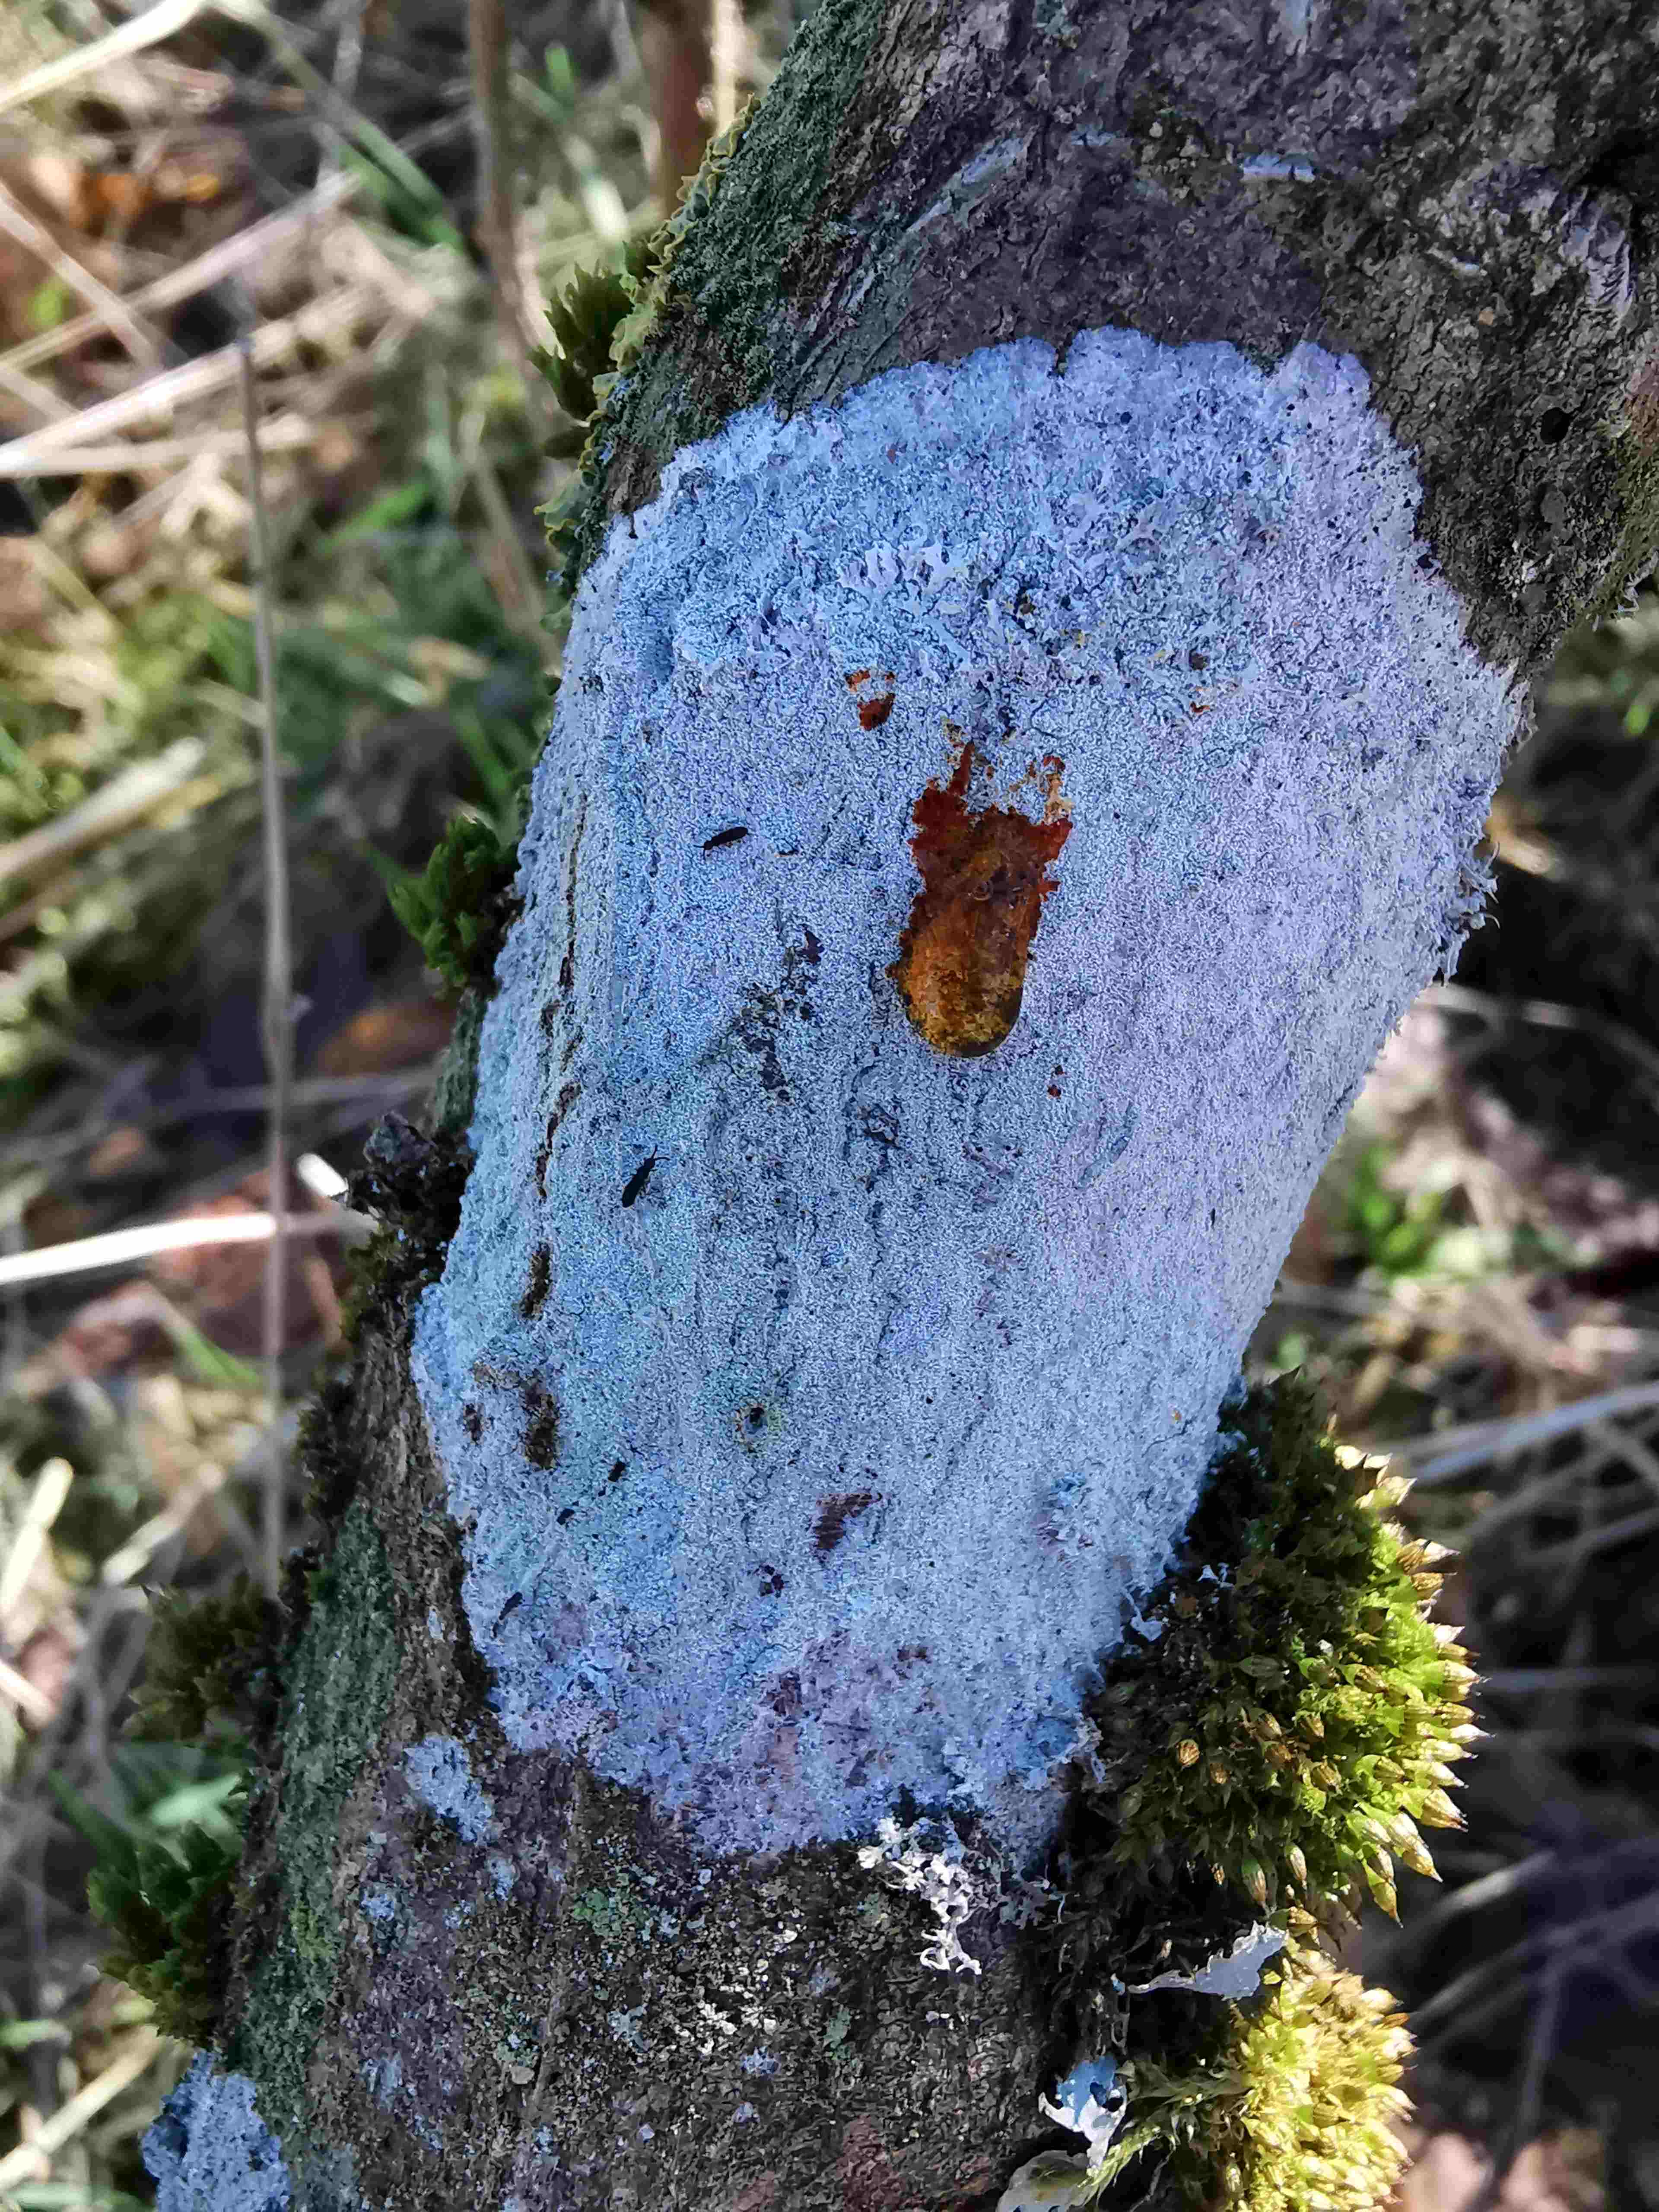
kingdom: Fungi
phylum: Ascomycota
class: Lecanoromycetes
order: Ostropales
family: Phlyctidaceae
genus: Phlyctis
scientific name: Phlyctis argena
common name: almindelig sølvlav
